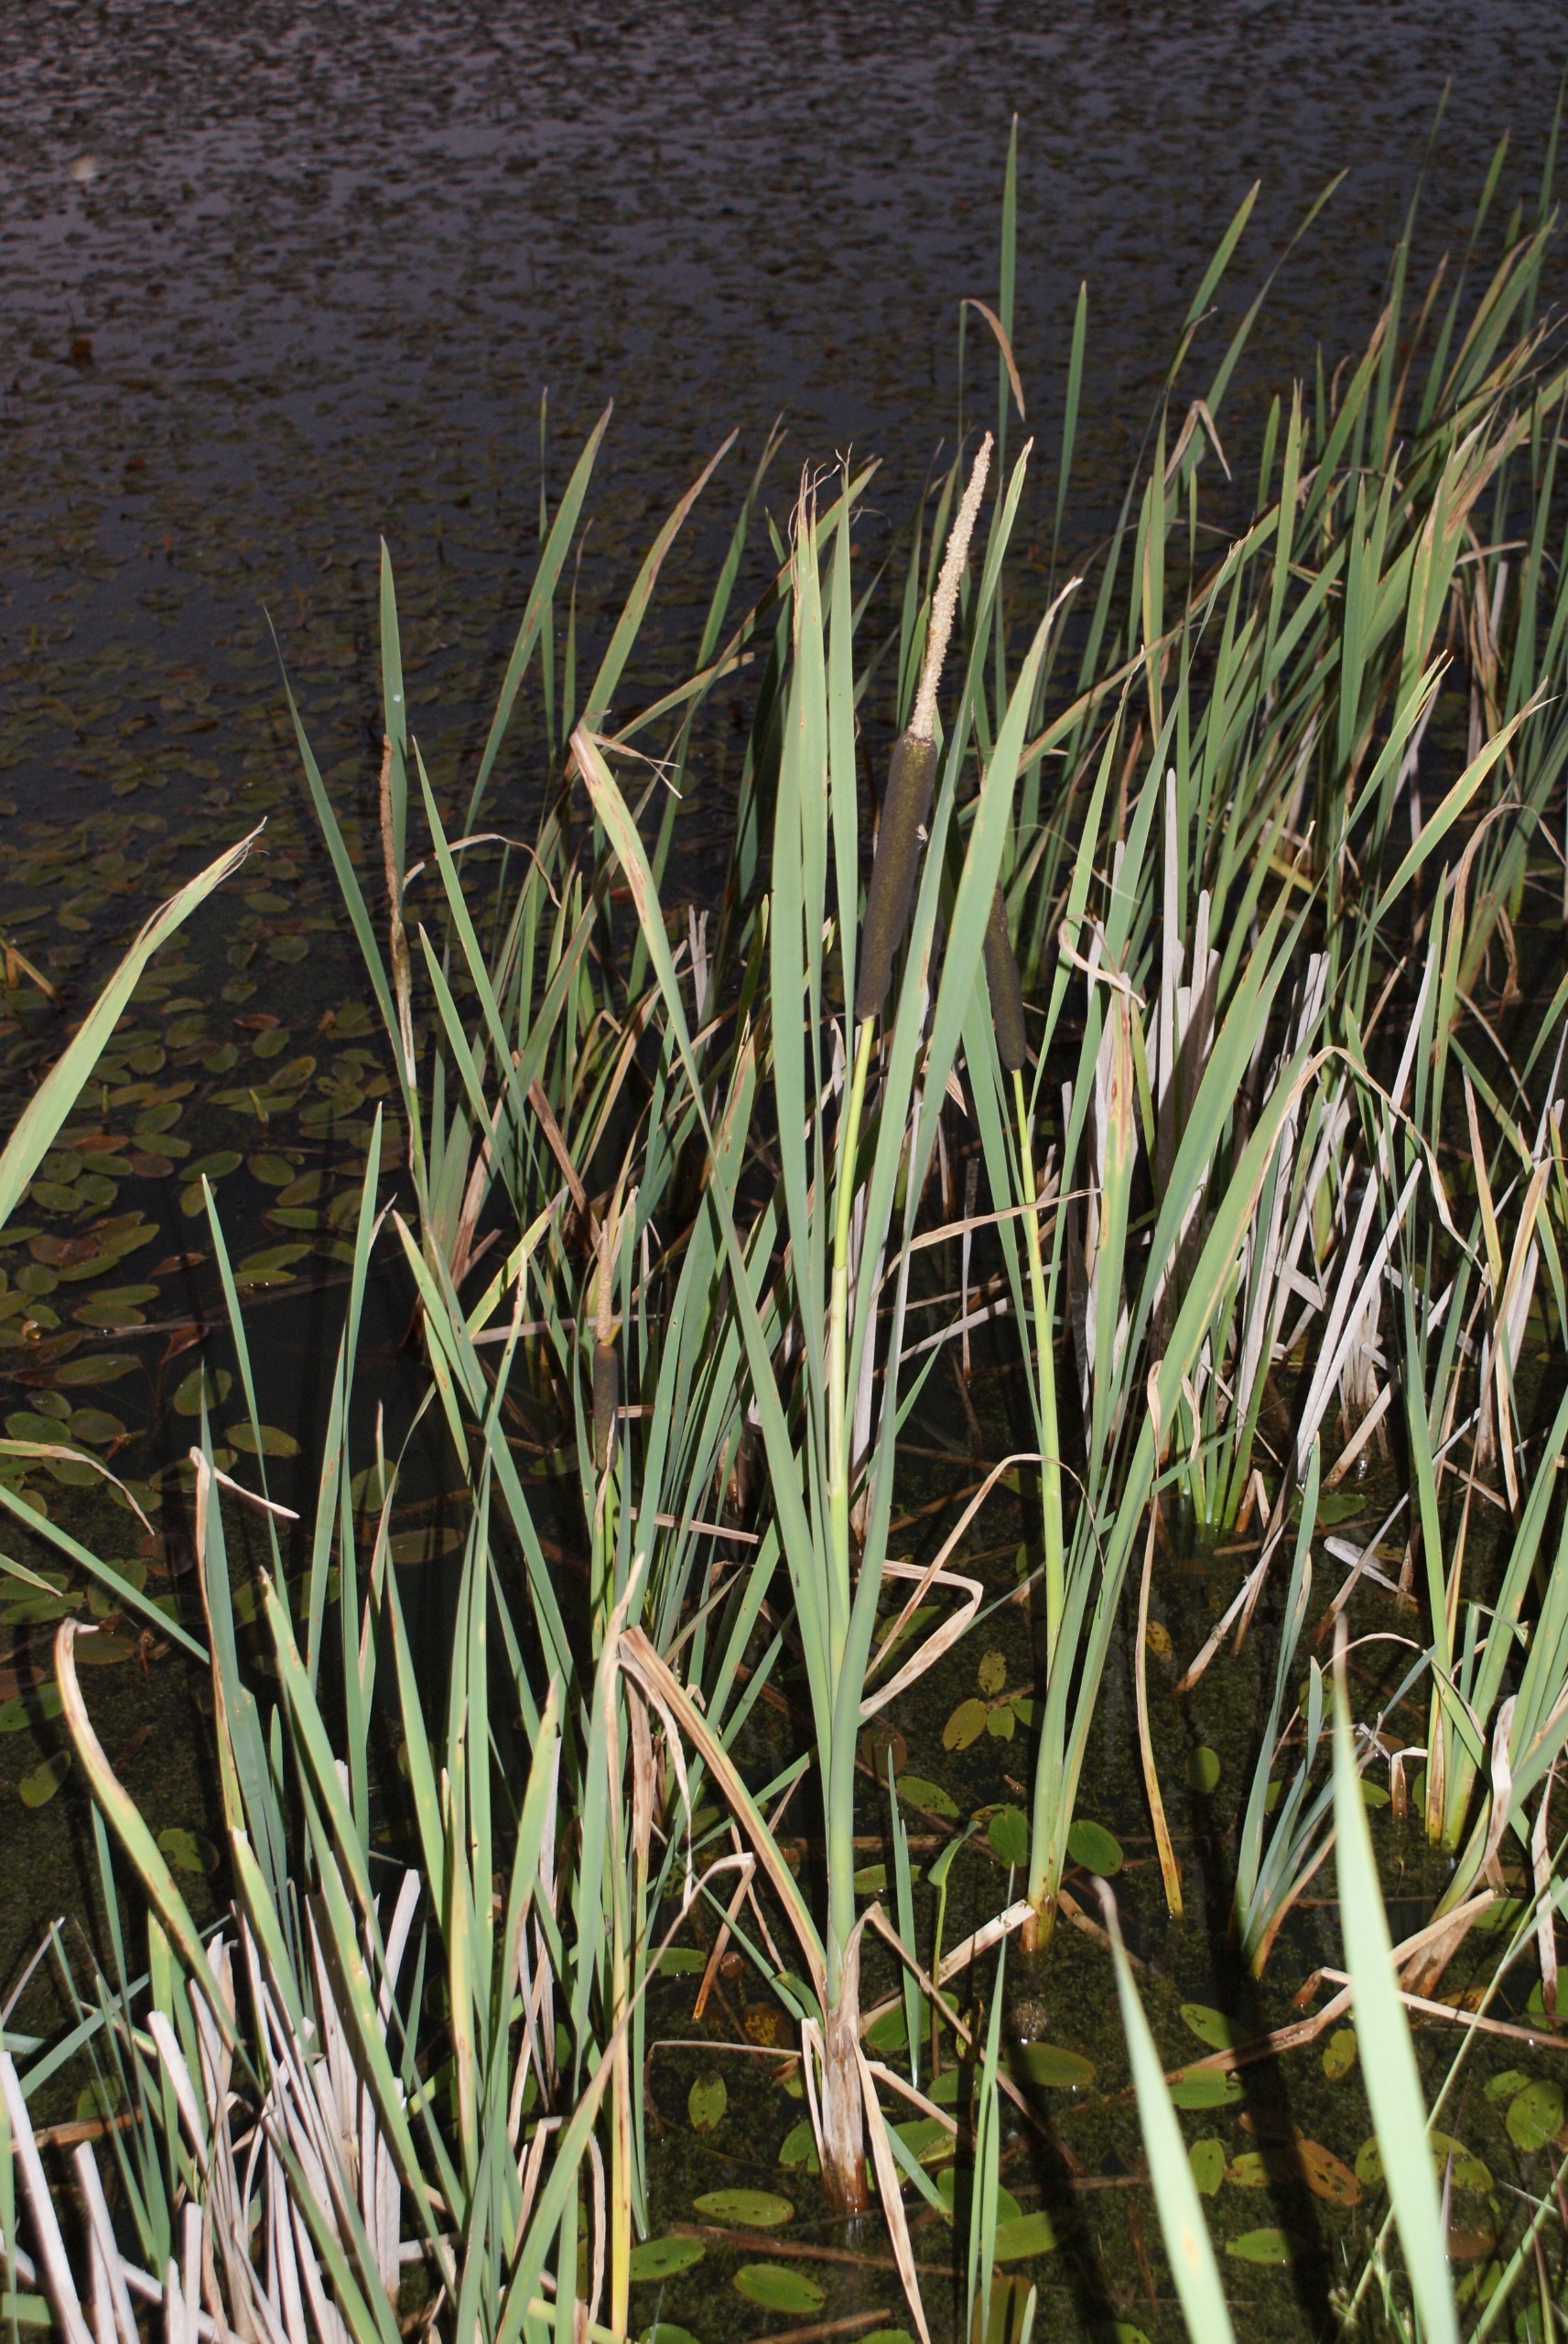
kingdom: Plantae
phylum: Tracheophyta
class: Liliopsida
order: Poales
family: Typhaceae
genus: Typha
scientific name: Typha latifolia
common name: Bredbladet dunhammer
